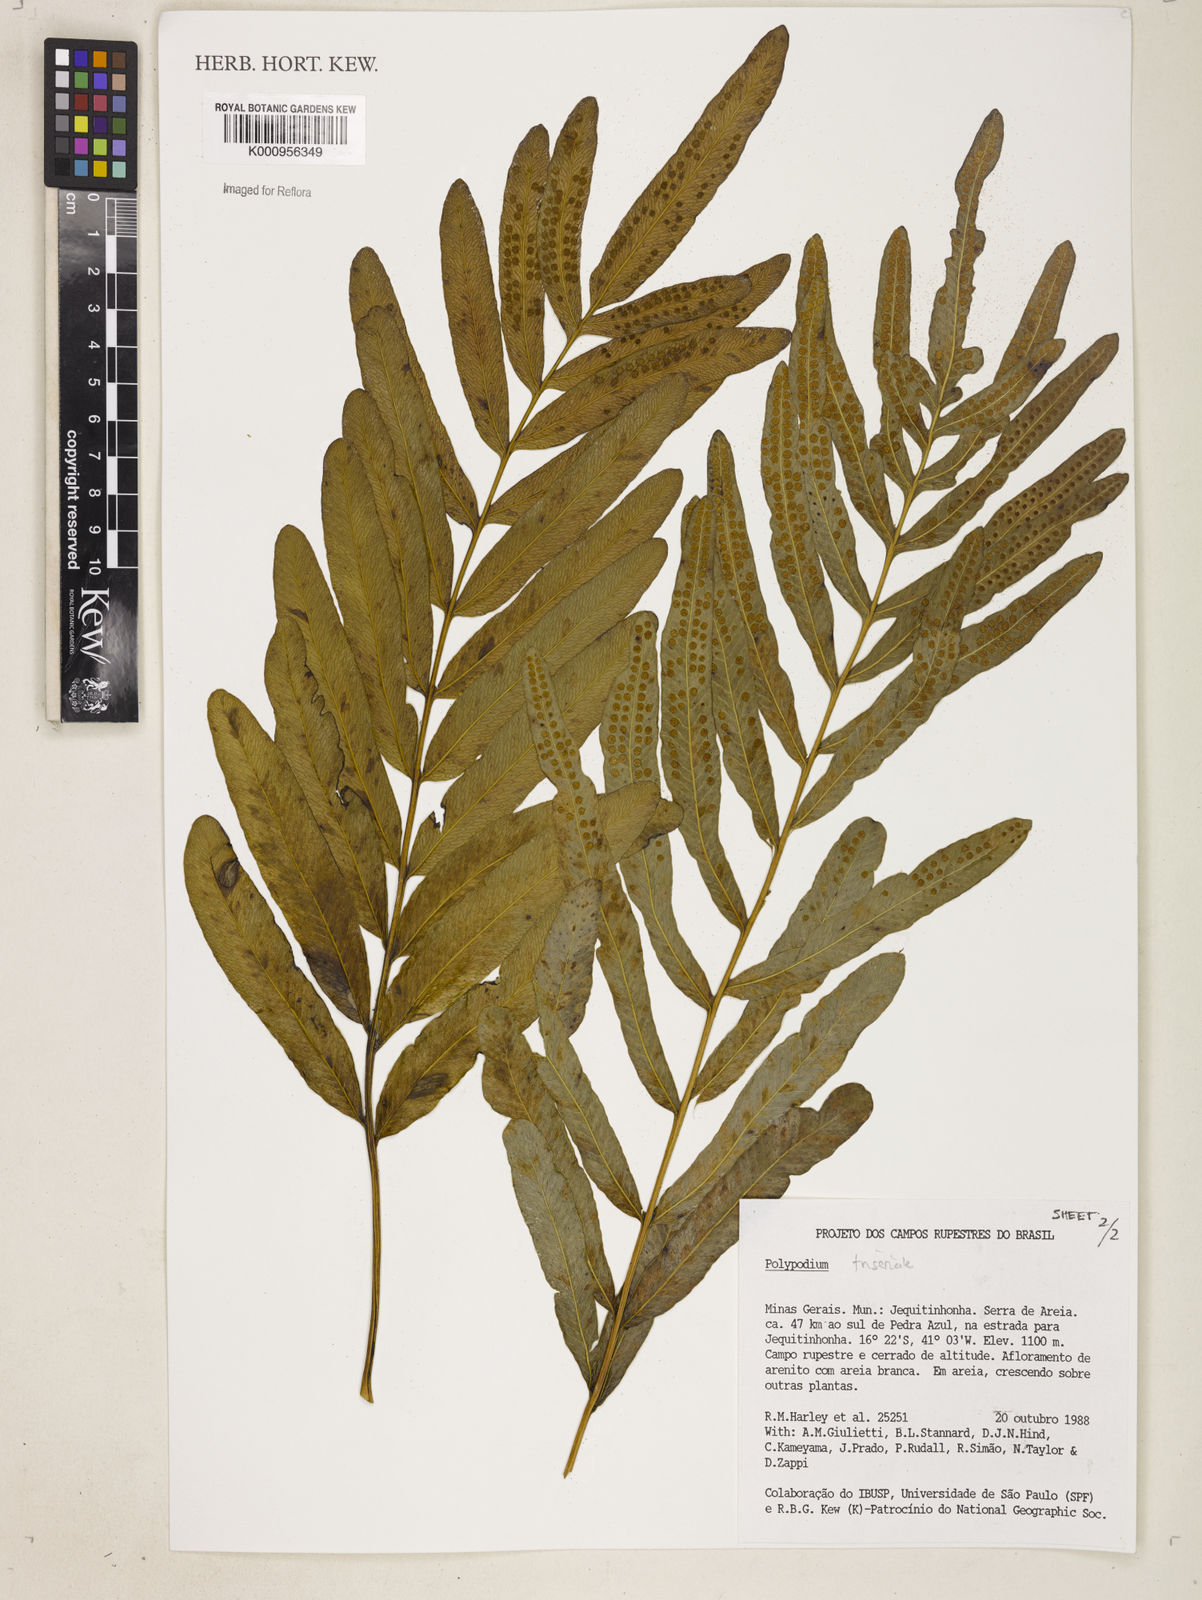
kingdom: Plantae
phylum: Tracheophyta
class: Polypodiopsida
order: Polypodiales
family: Polypodiaceae
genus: Serpocaulon
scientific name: Serpocaulon triseriale
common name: Angle-vein fern
